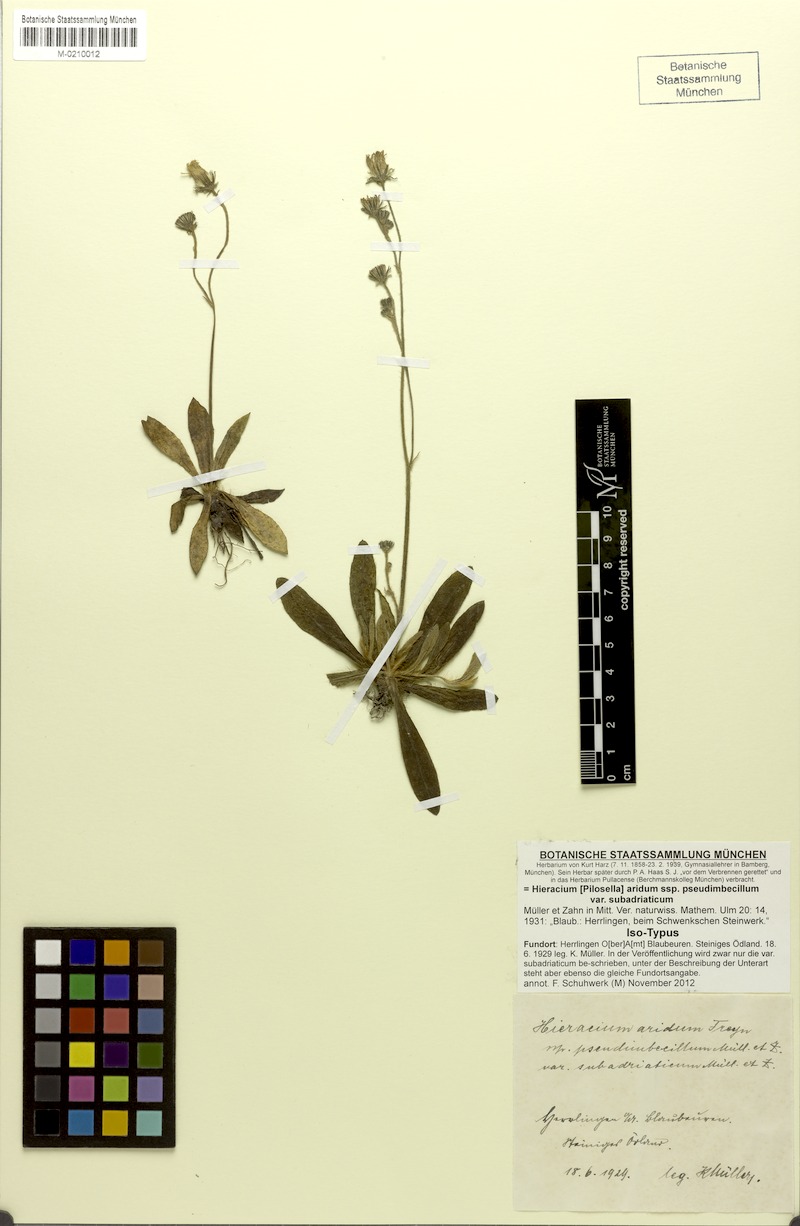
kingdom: Plantae
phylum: Tracheophyta
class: Magnoliopsida
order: Asterales
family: Asteraceae
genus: Pilosella
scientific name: Pilosella arida
